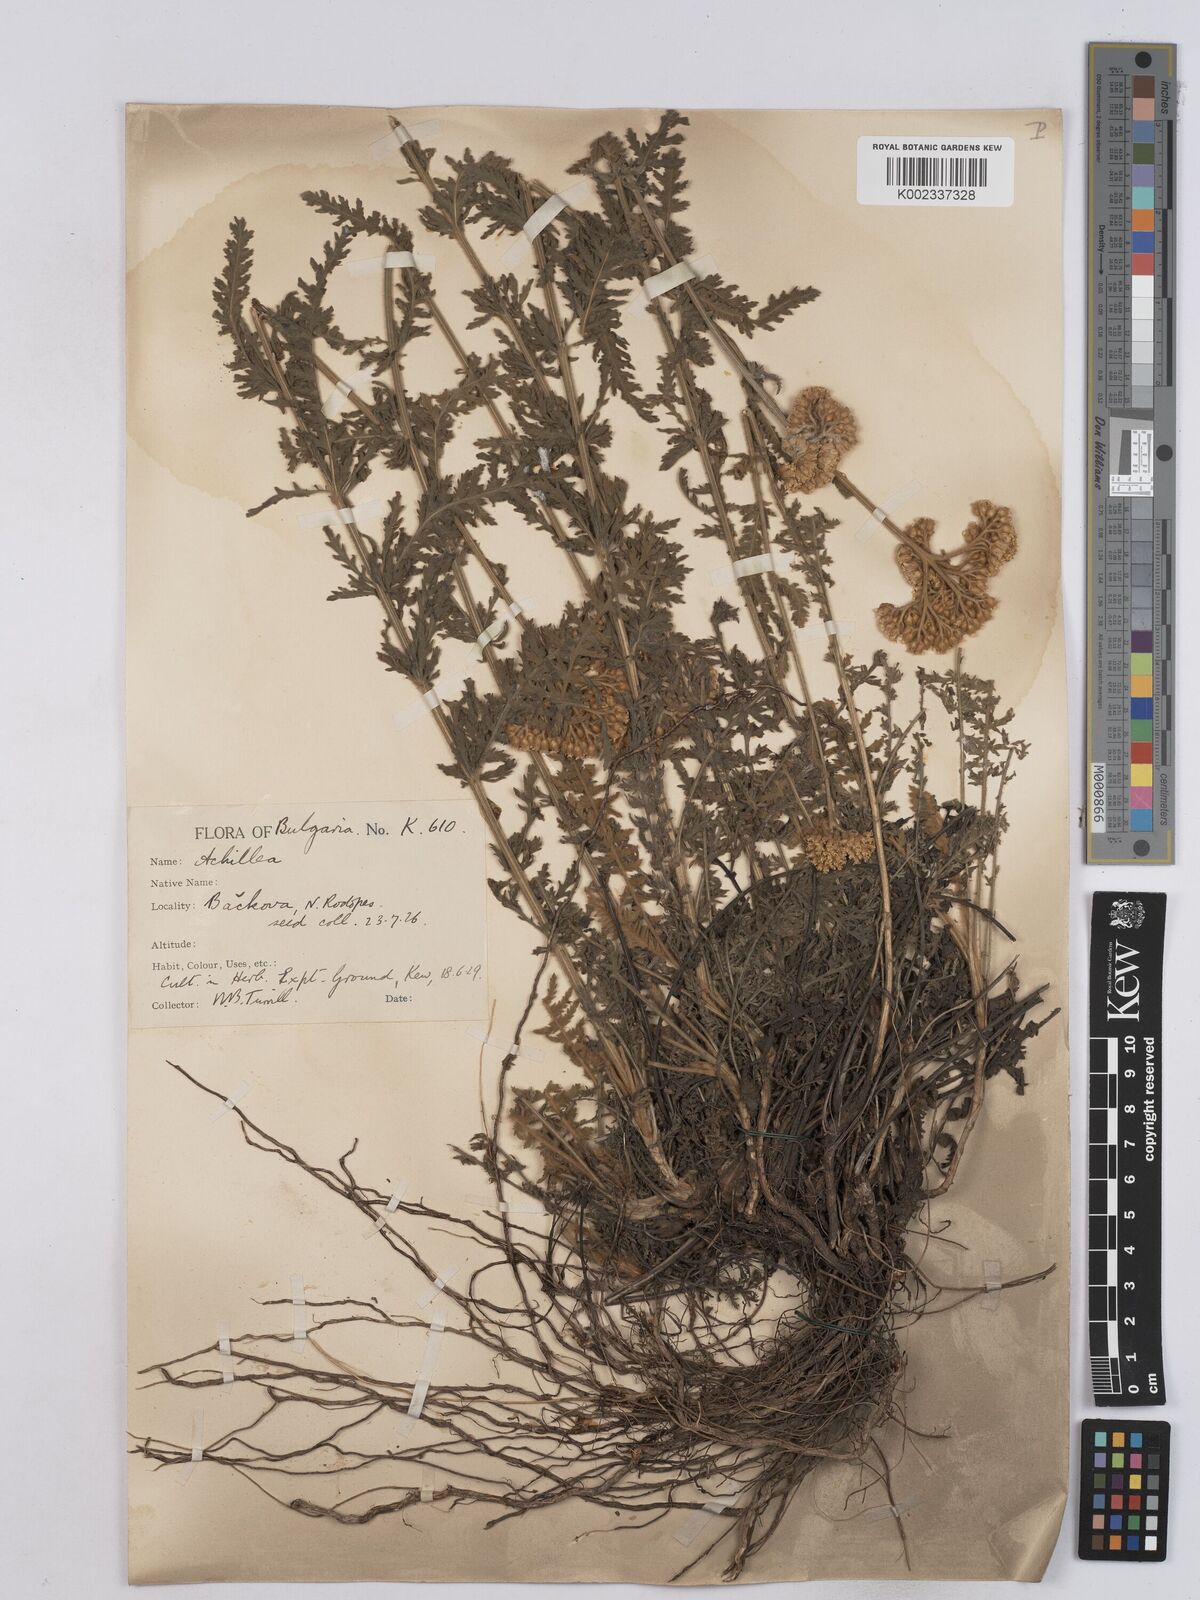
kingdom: Plantae
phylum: Tracheophyta
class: Magnoliopsida
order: Asterales
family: Asteraceae
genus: Achillea
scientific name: Achillea clypeolata
